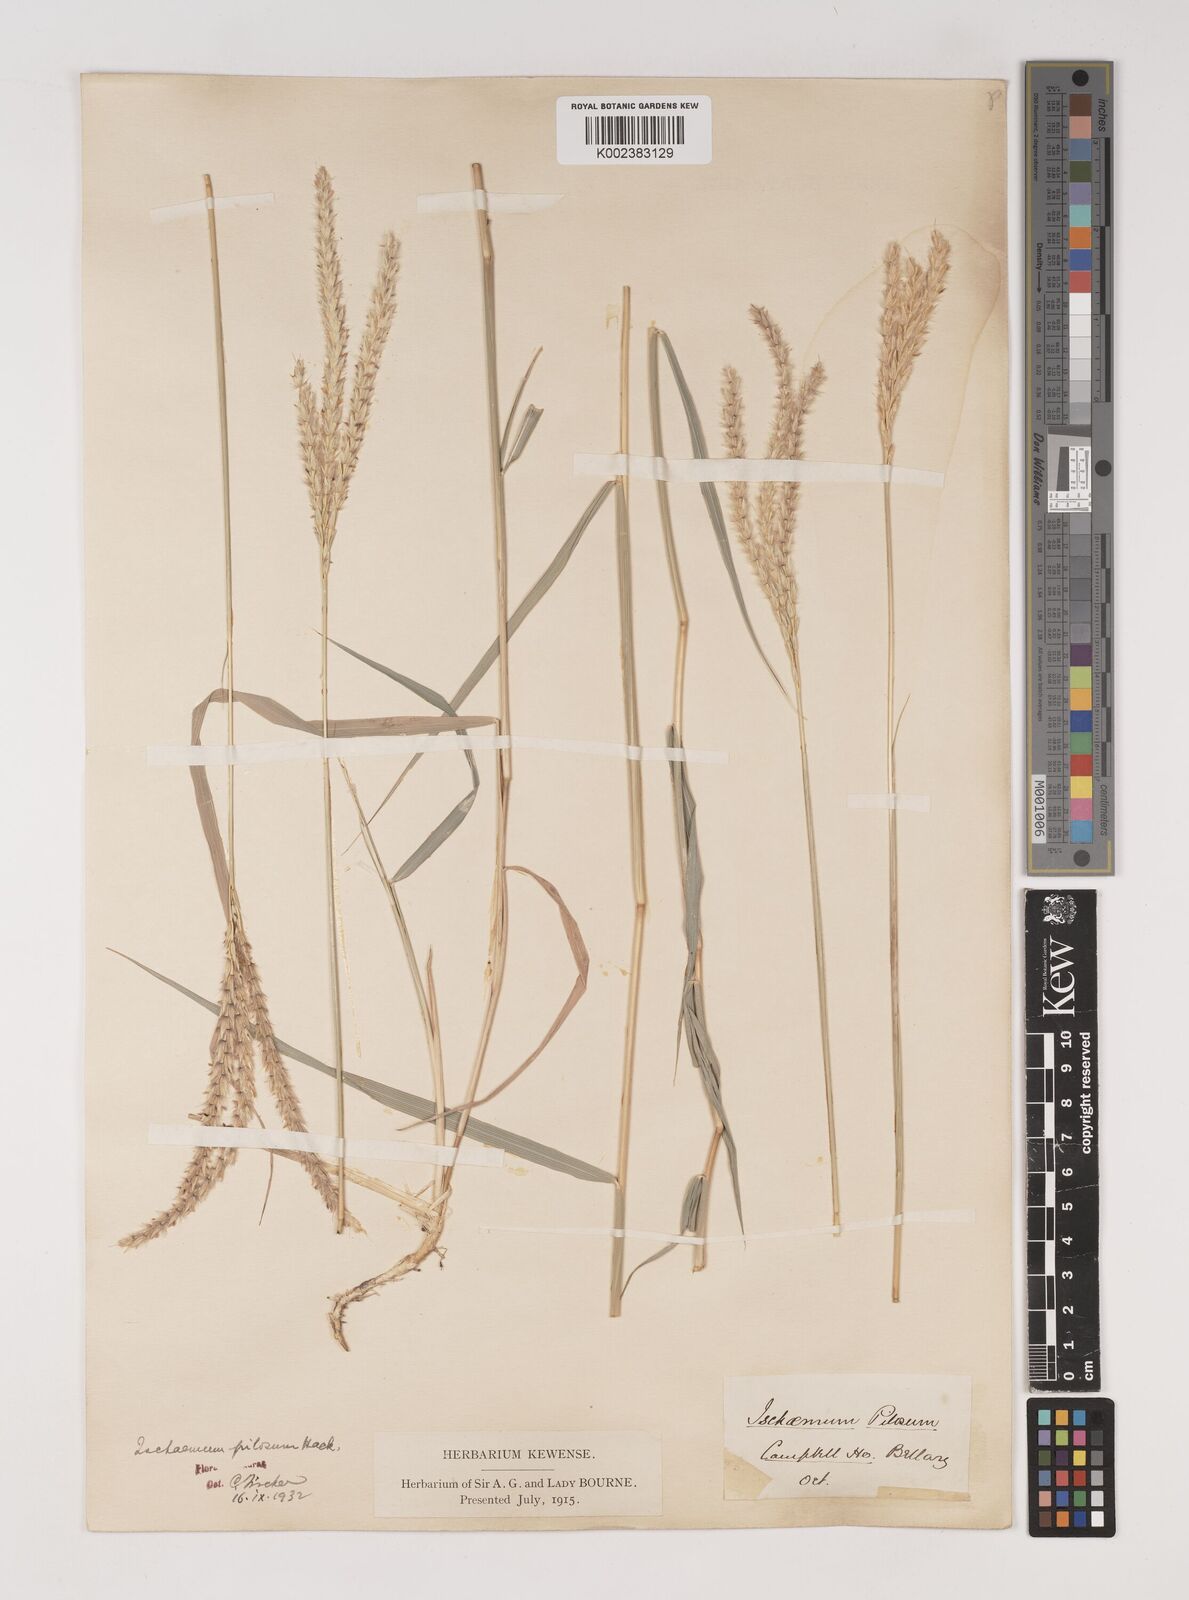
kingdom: Plantae
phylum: Tracheophyta
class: Liliopsida
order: Poales
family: Poaceae
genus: Ischaemum
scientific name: Ischaemum afrum
